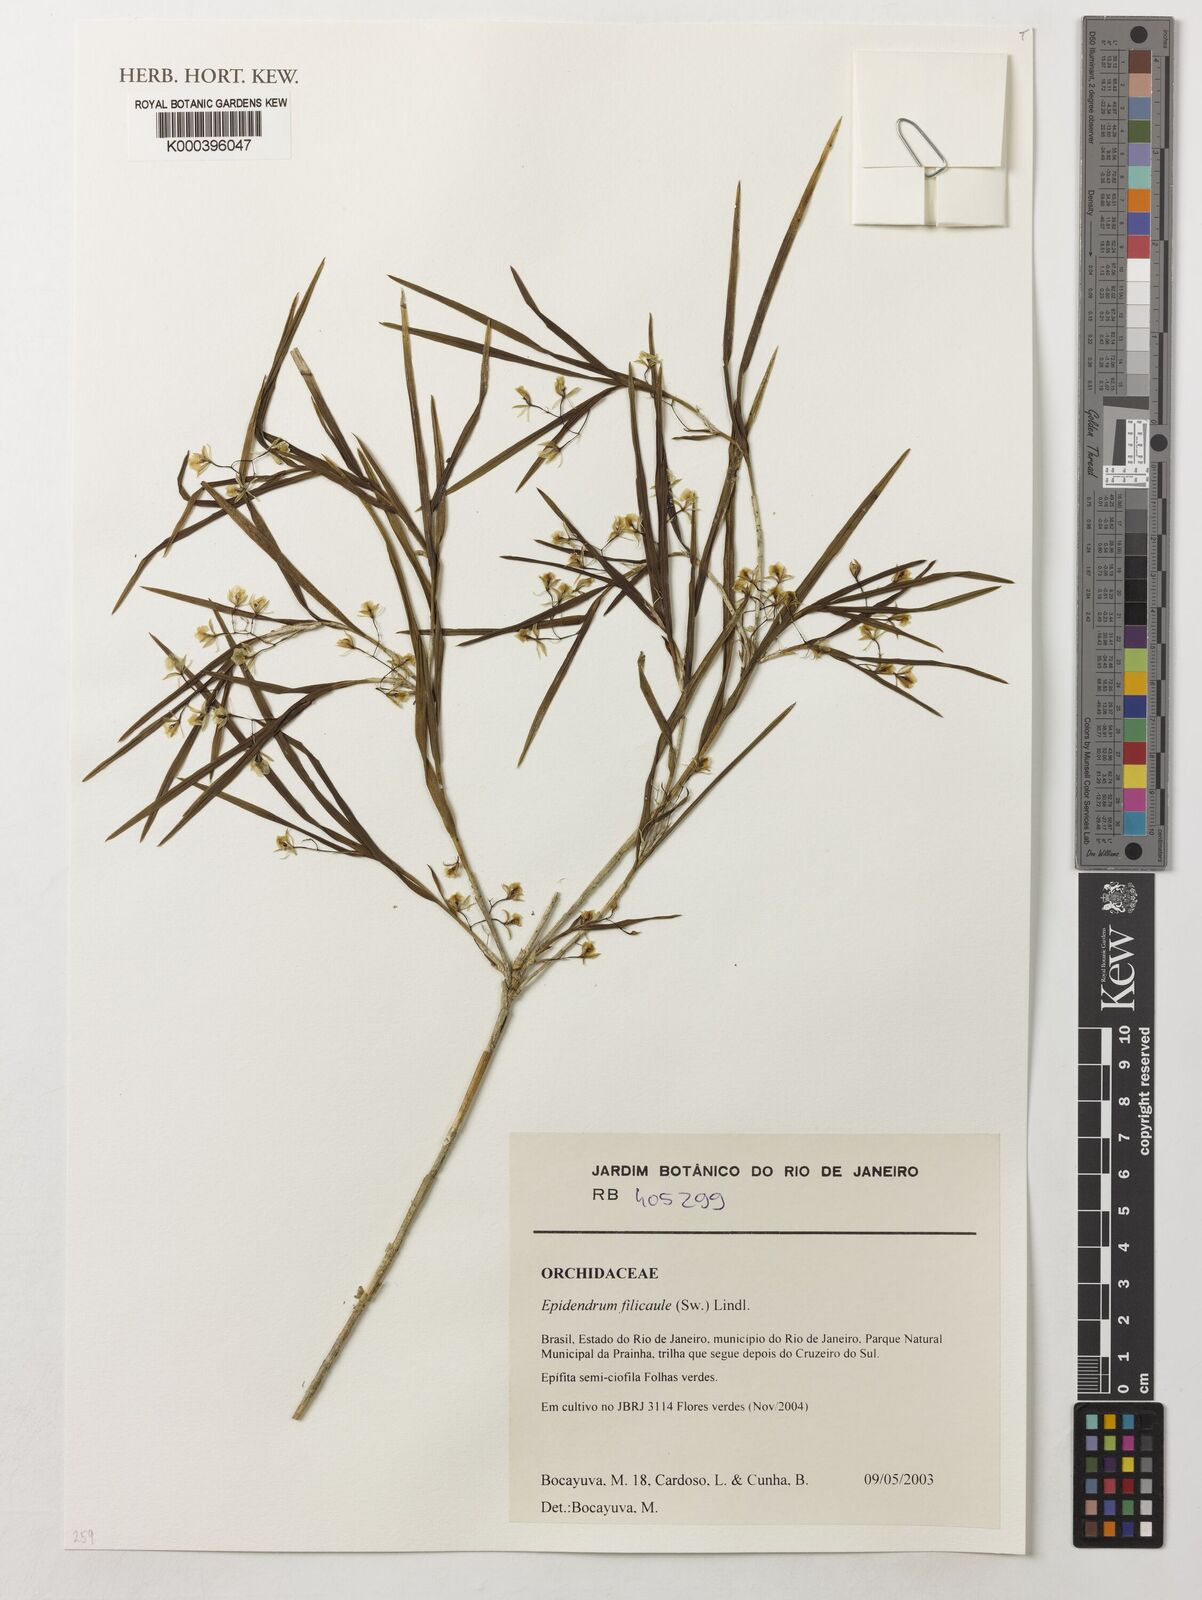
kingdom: Plantae
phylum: Tracheophyta
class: Liliopsida
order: Asparagales
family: Orchidaceae
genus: Epidendrum
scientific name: Epidendrum filicaule
